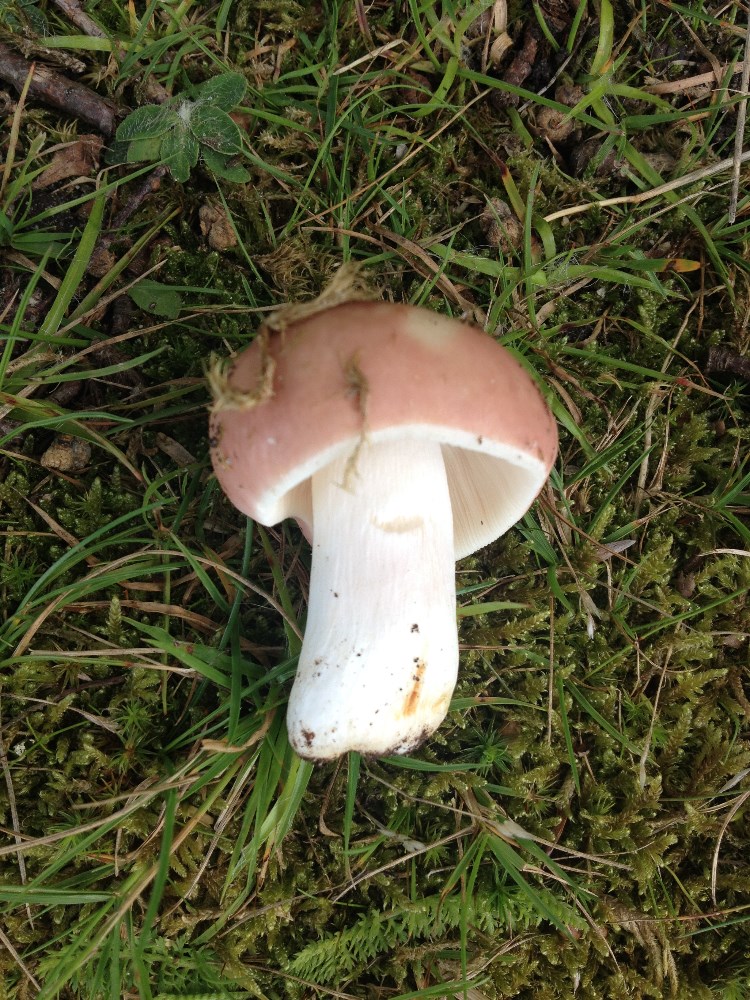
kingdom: Fungi
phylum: Basidiomycota
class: Agaricomycetes
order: Russulales
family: Russulaceae
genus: Russula
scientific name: Russula vesca
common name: spiselig skørhat
